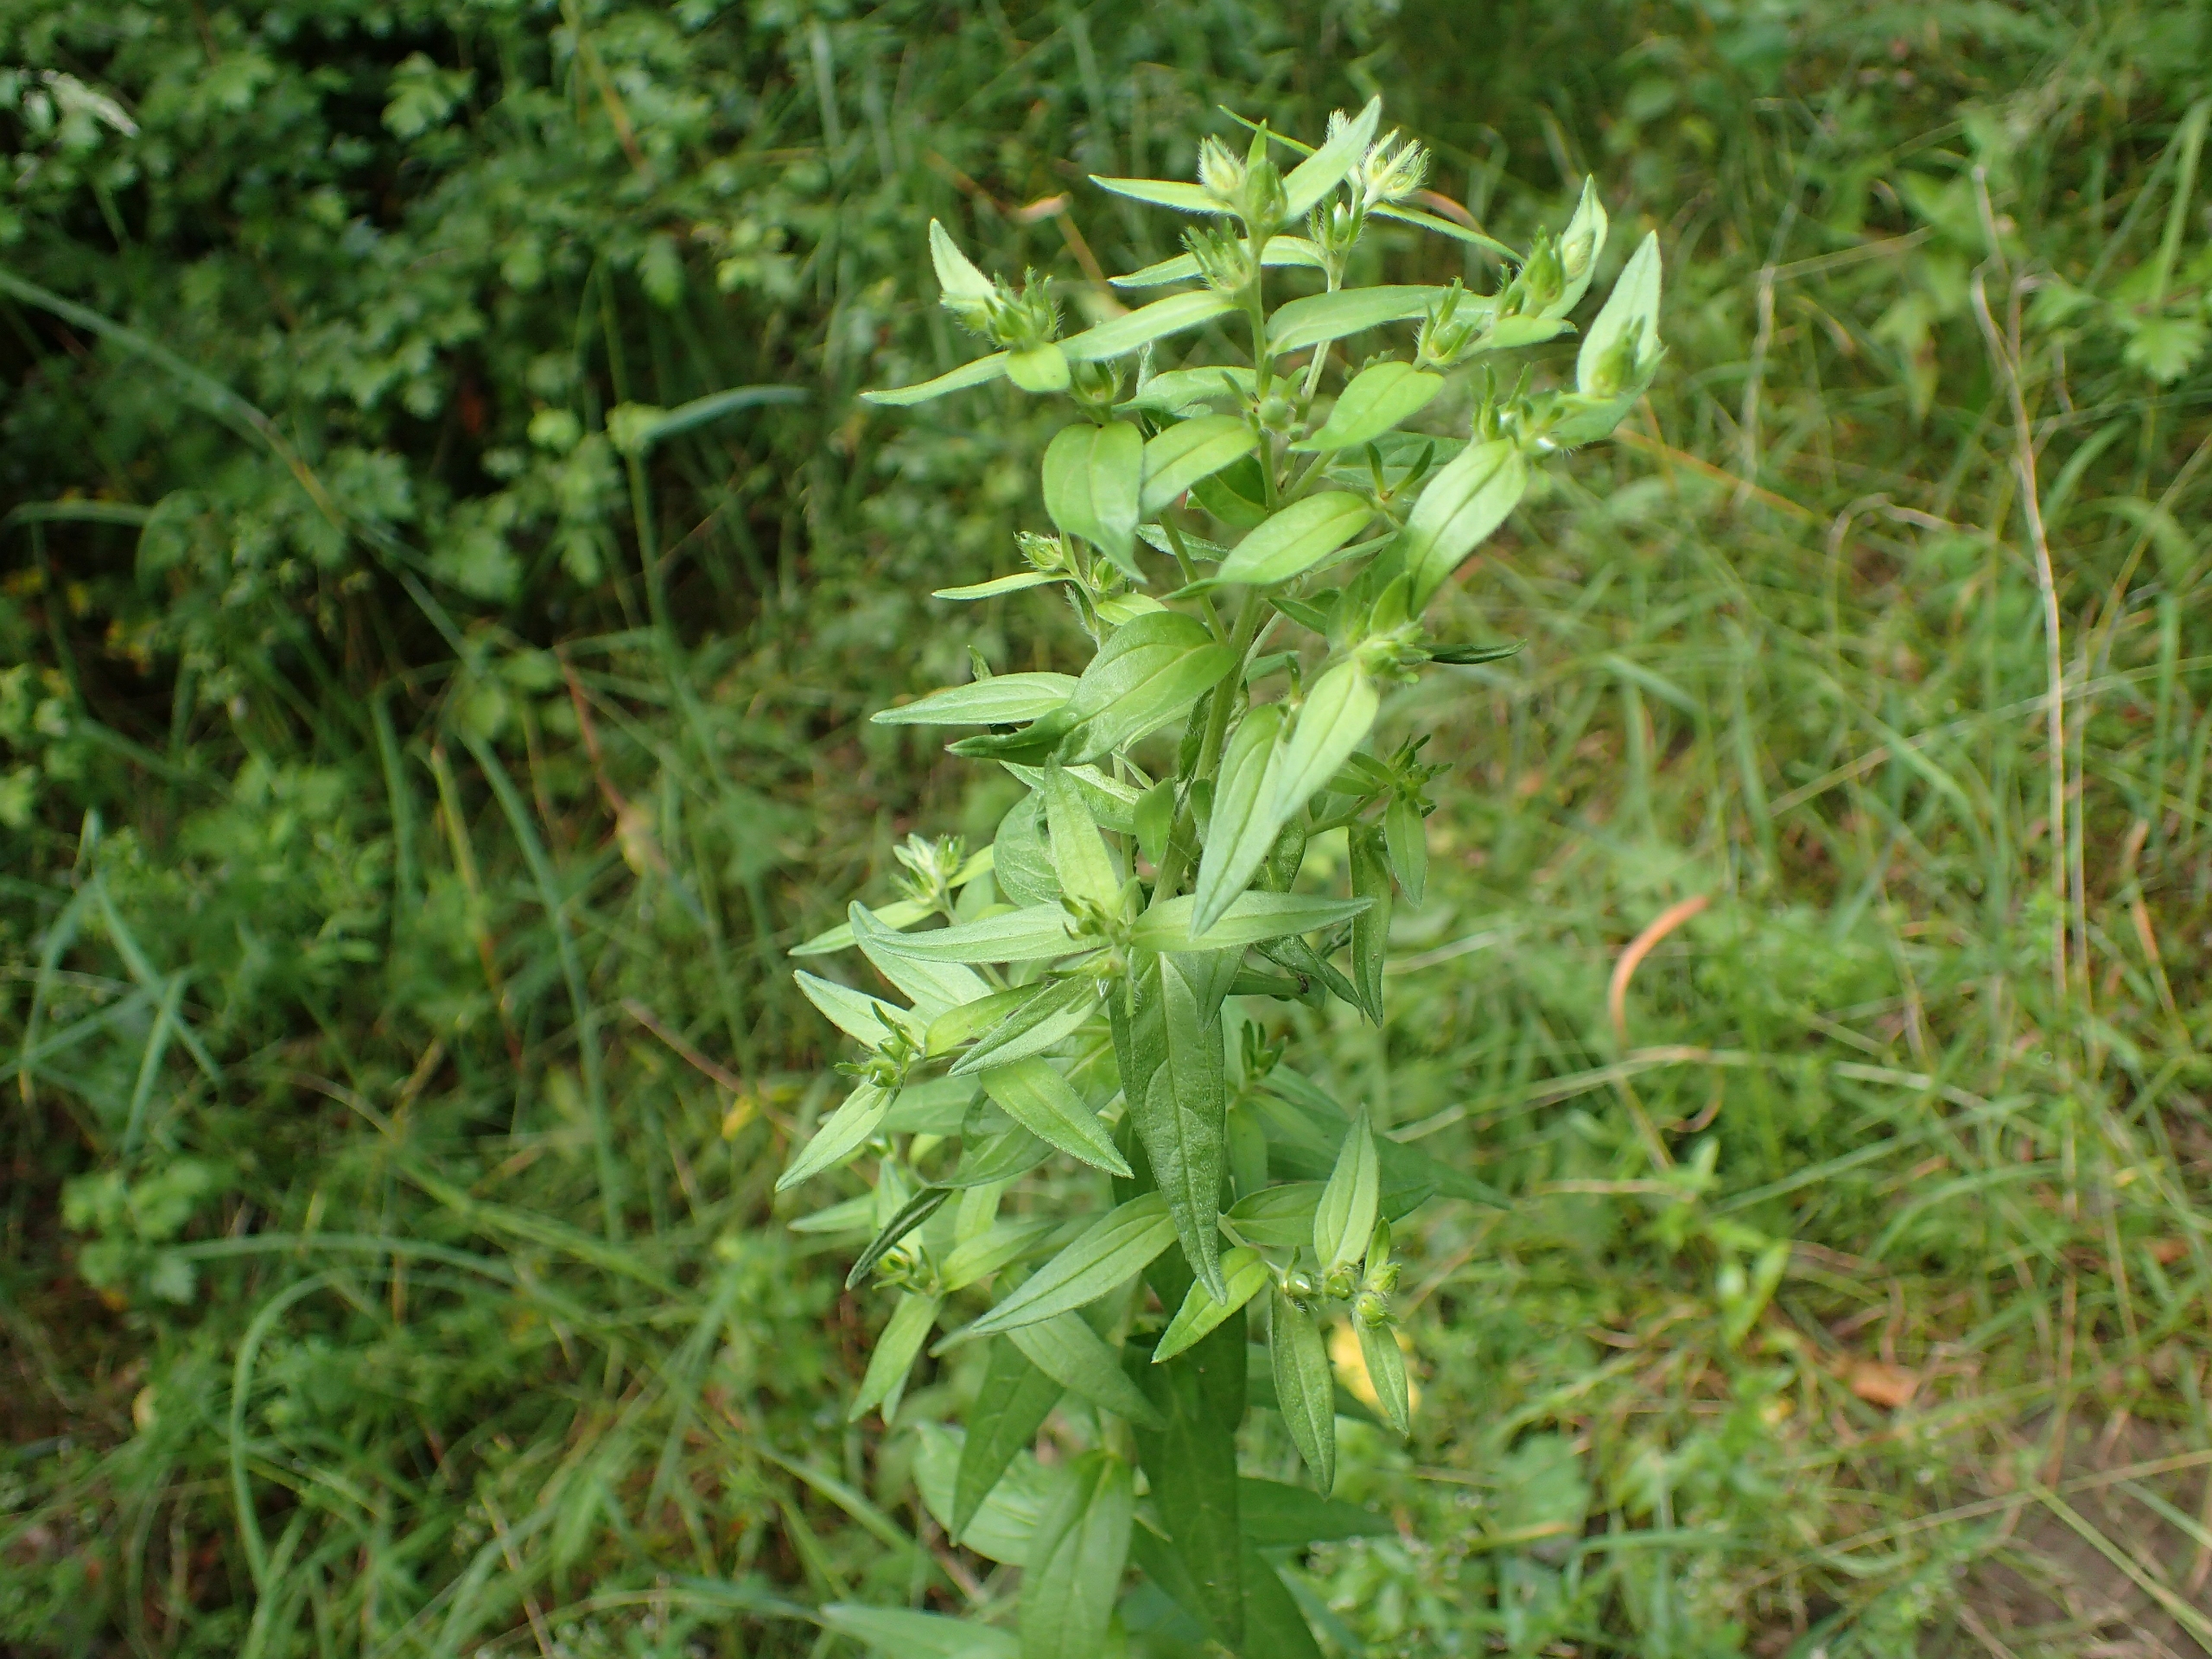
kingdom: Plantae
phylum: Tracheophyta
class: Magnoliopsida
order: Boraginales
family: Boraginaceae
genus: Lithospermum
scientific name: Lithospermum officinale
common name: Læge-stenfrø
